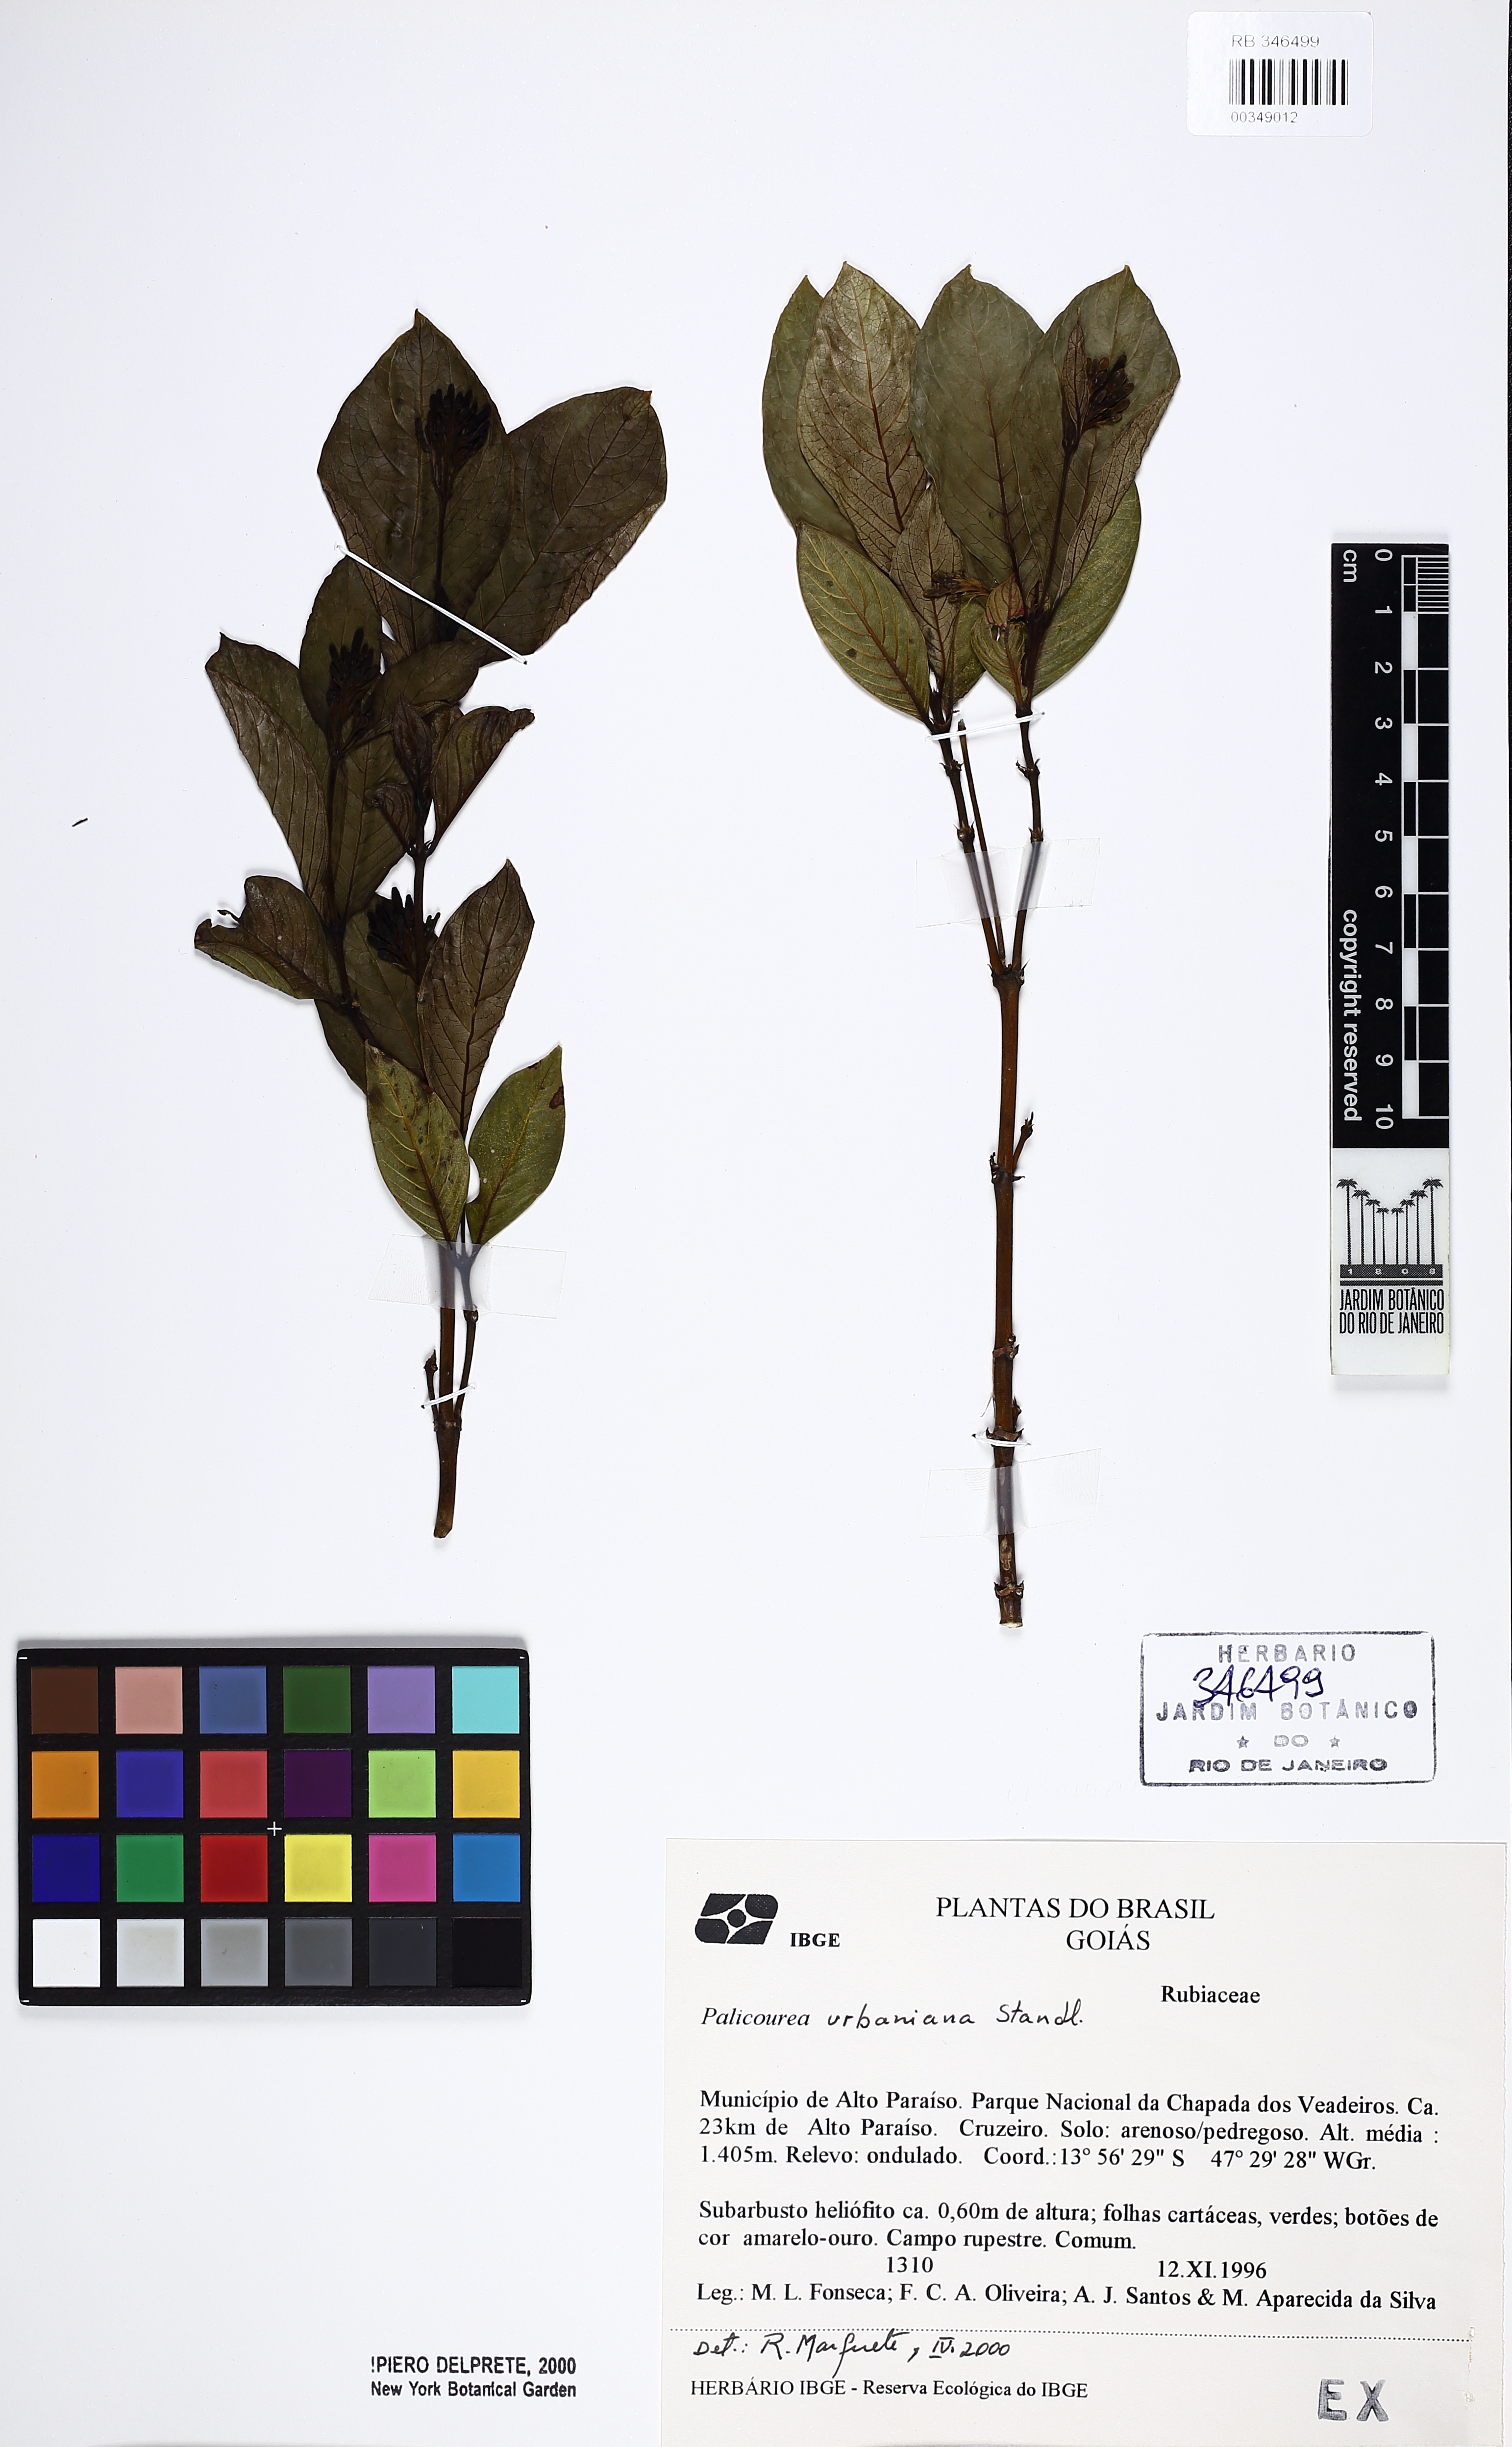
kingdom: Plantae
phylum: Tracheophyta
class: Magnoliopsida
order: Gentianales
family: Rubiaceae
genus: Palicourea
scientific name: Palicourea urbaniana
